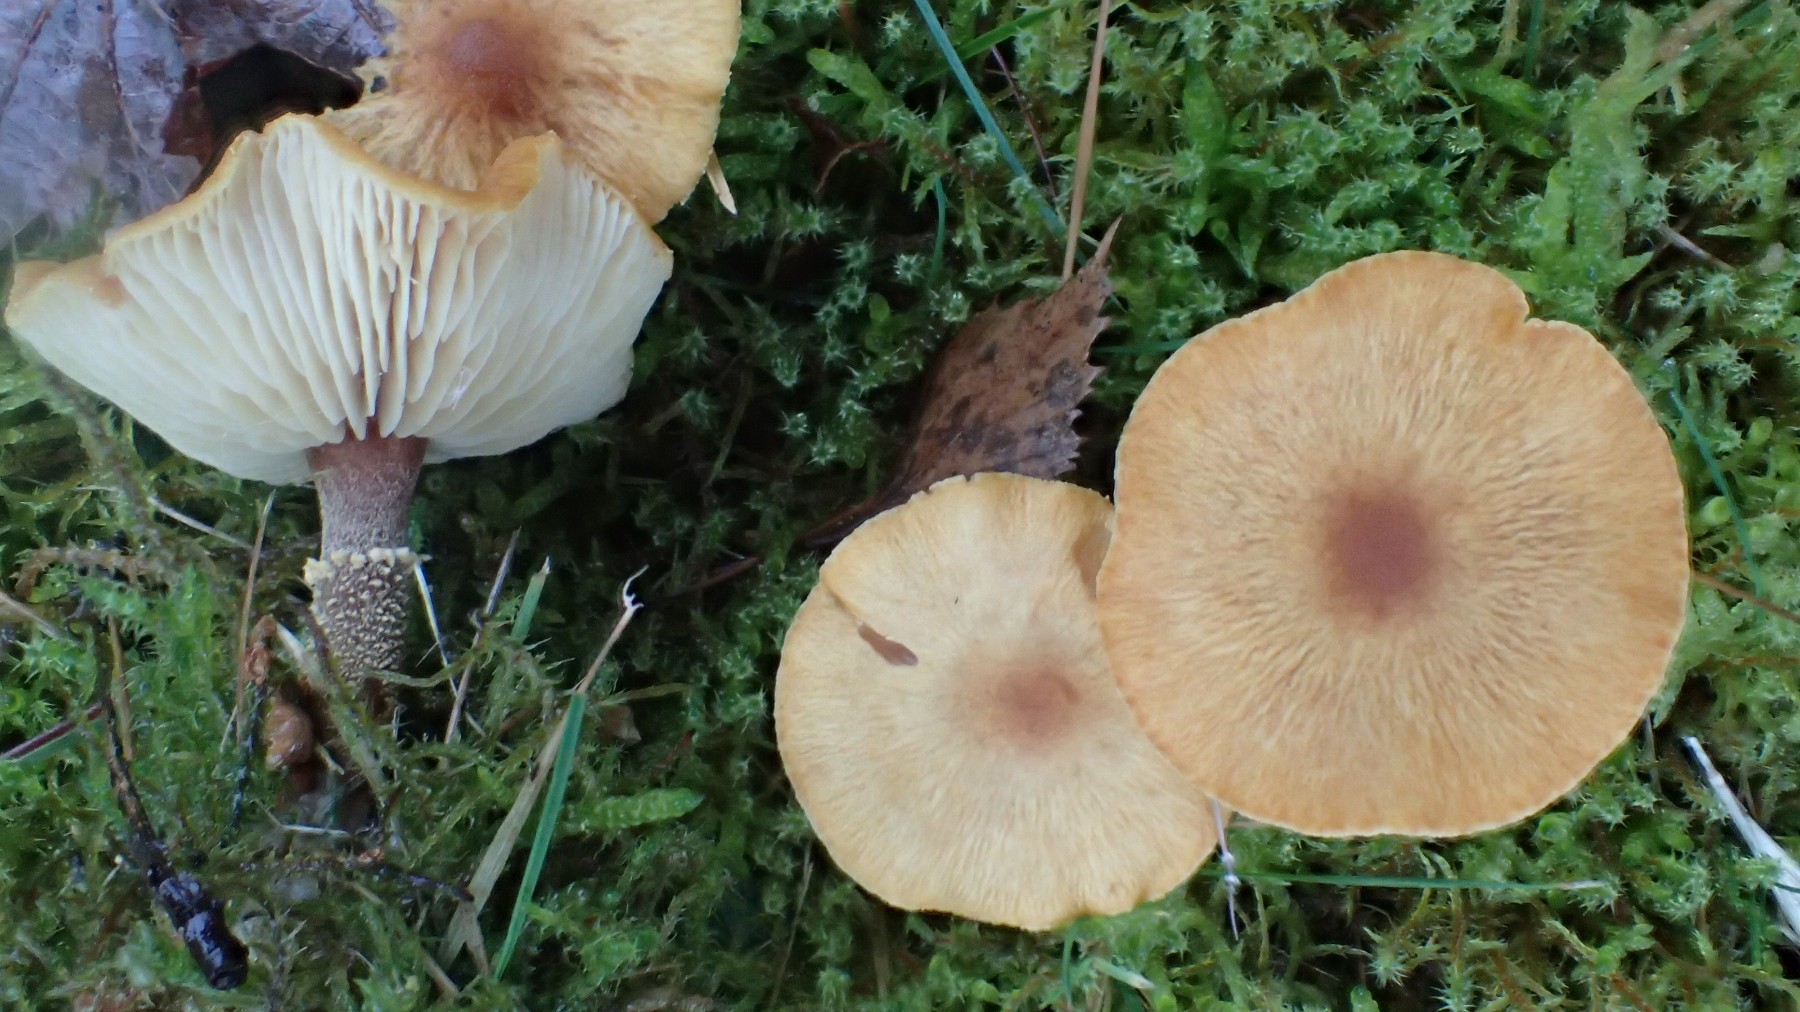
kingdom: Fungi
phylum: Basidiomycota
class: Agaricomycetes
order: Agaricales
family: Tricholomataceae
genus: Cystoderma
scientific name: Cystoderma amianthinum
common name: okkergul grynhat
